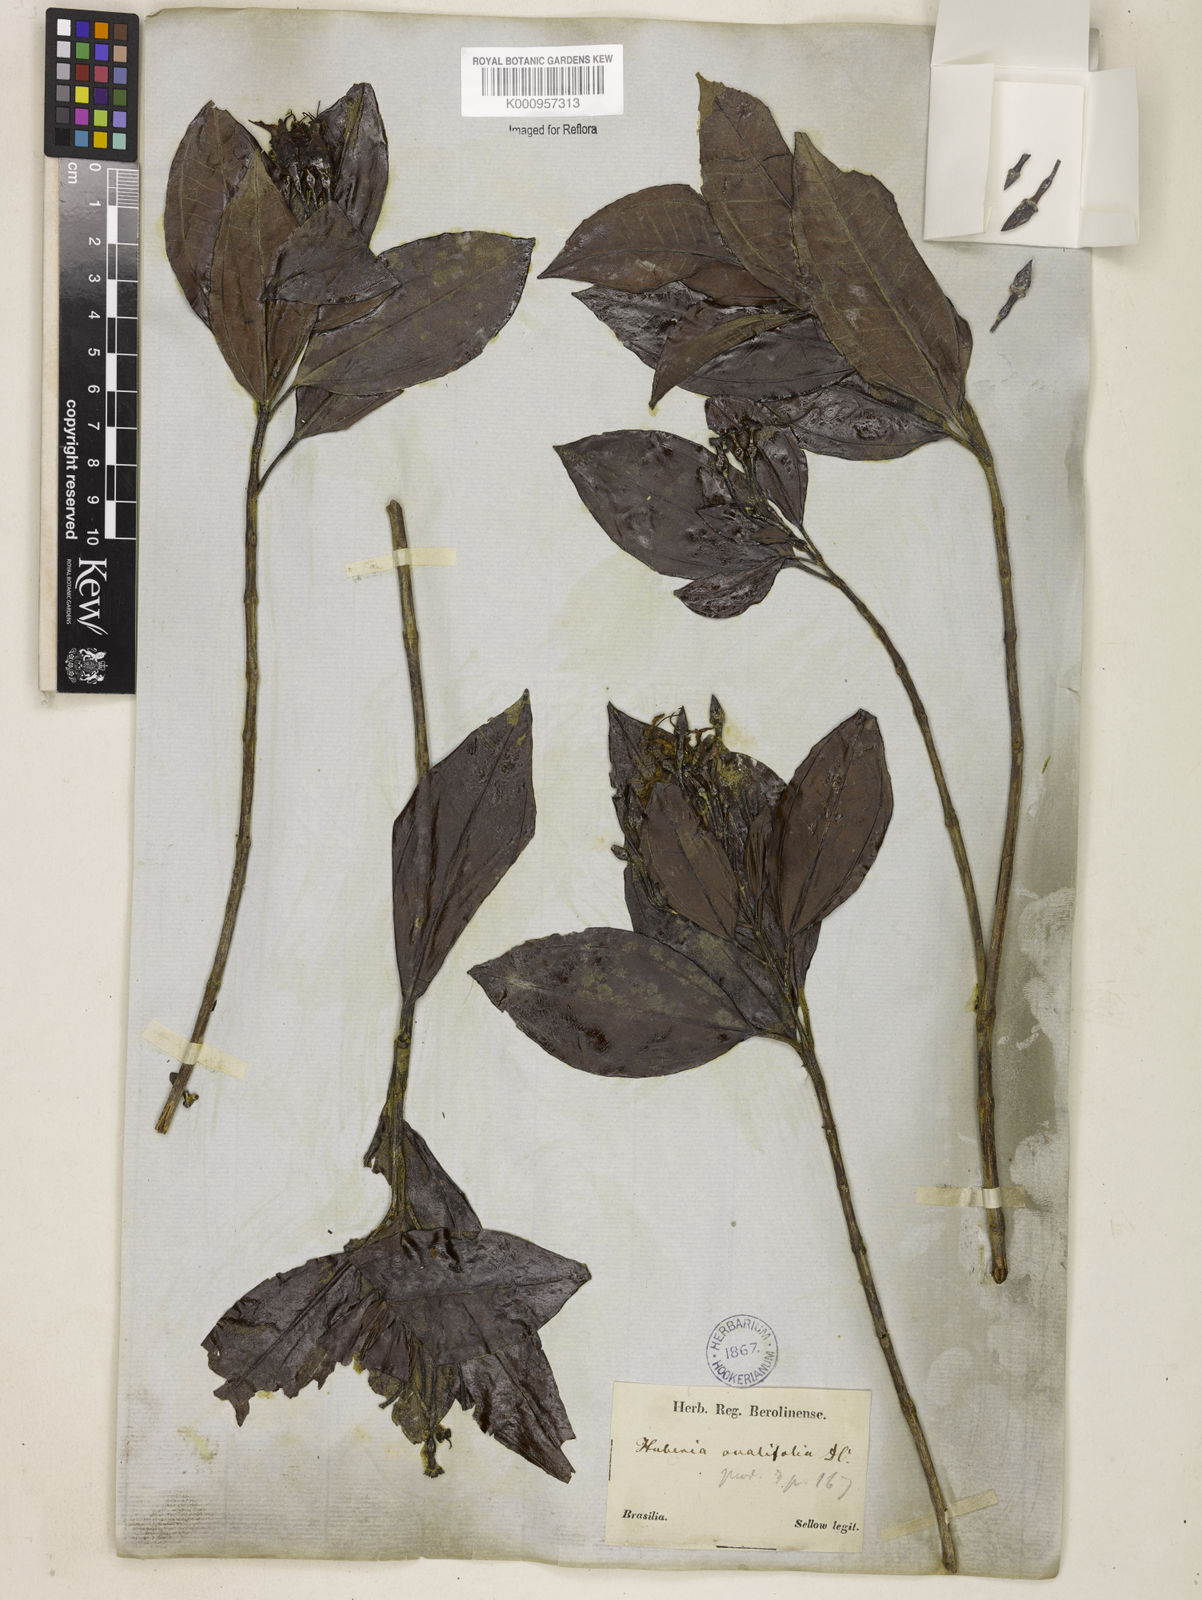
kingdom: Plantae
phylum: Tracheophyta
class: Magnoliopsida
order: Myrtales
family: Melastomataceae
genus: Huberia
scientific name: Huberia ovalifolia
